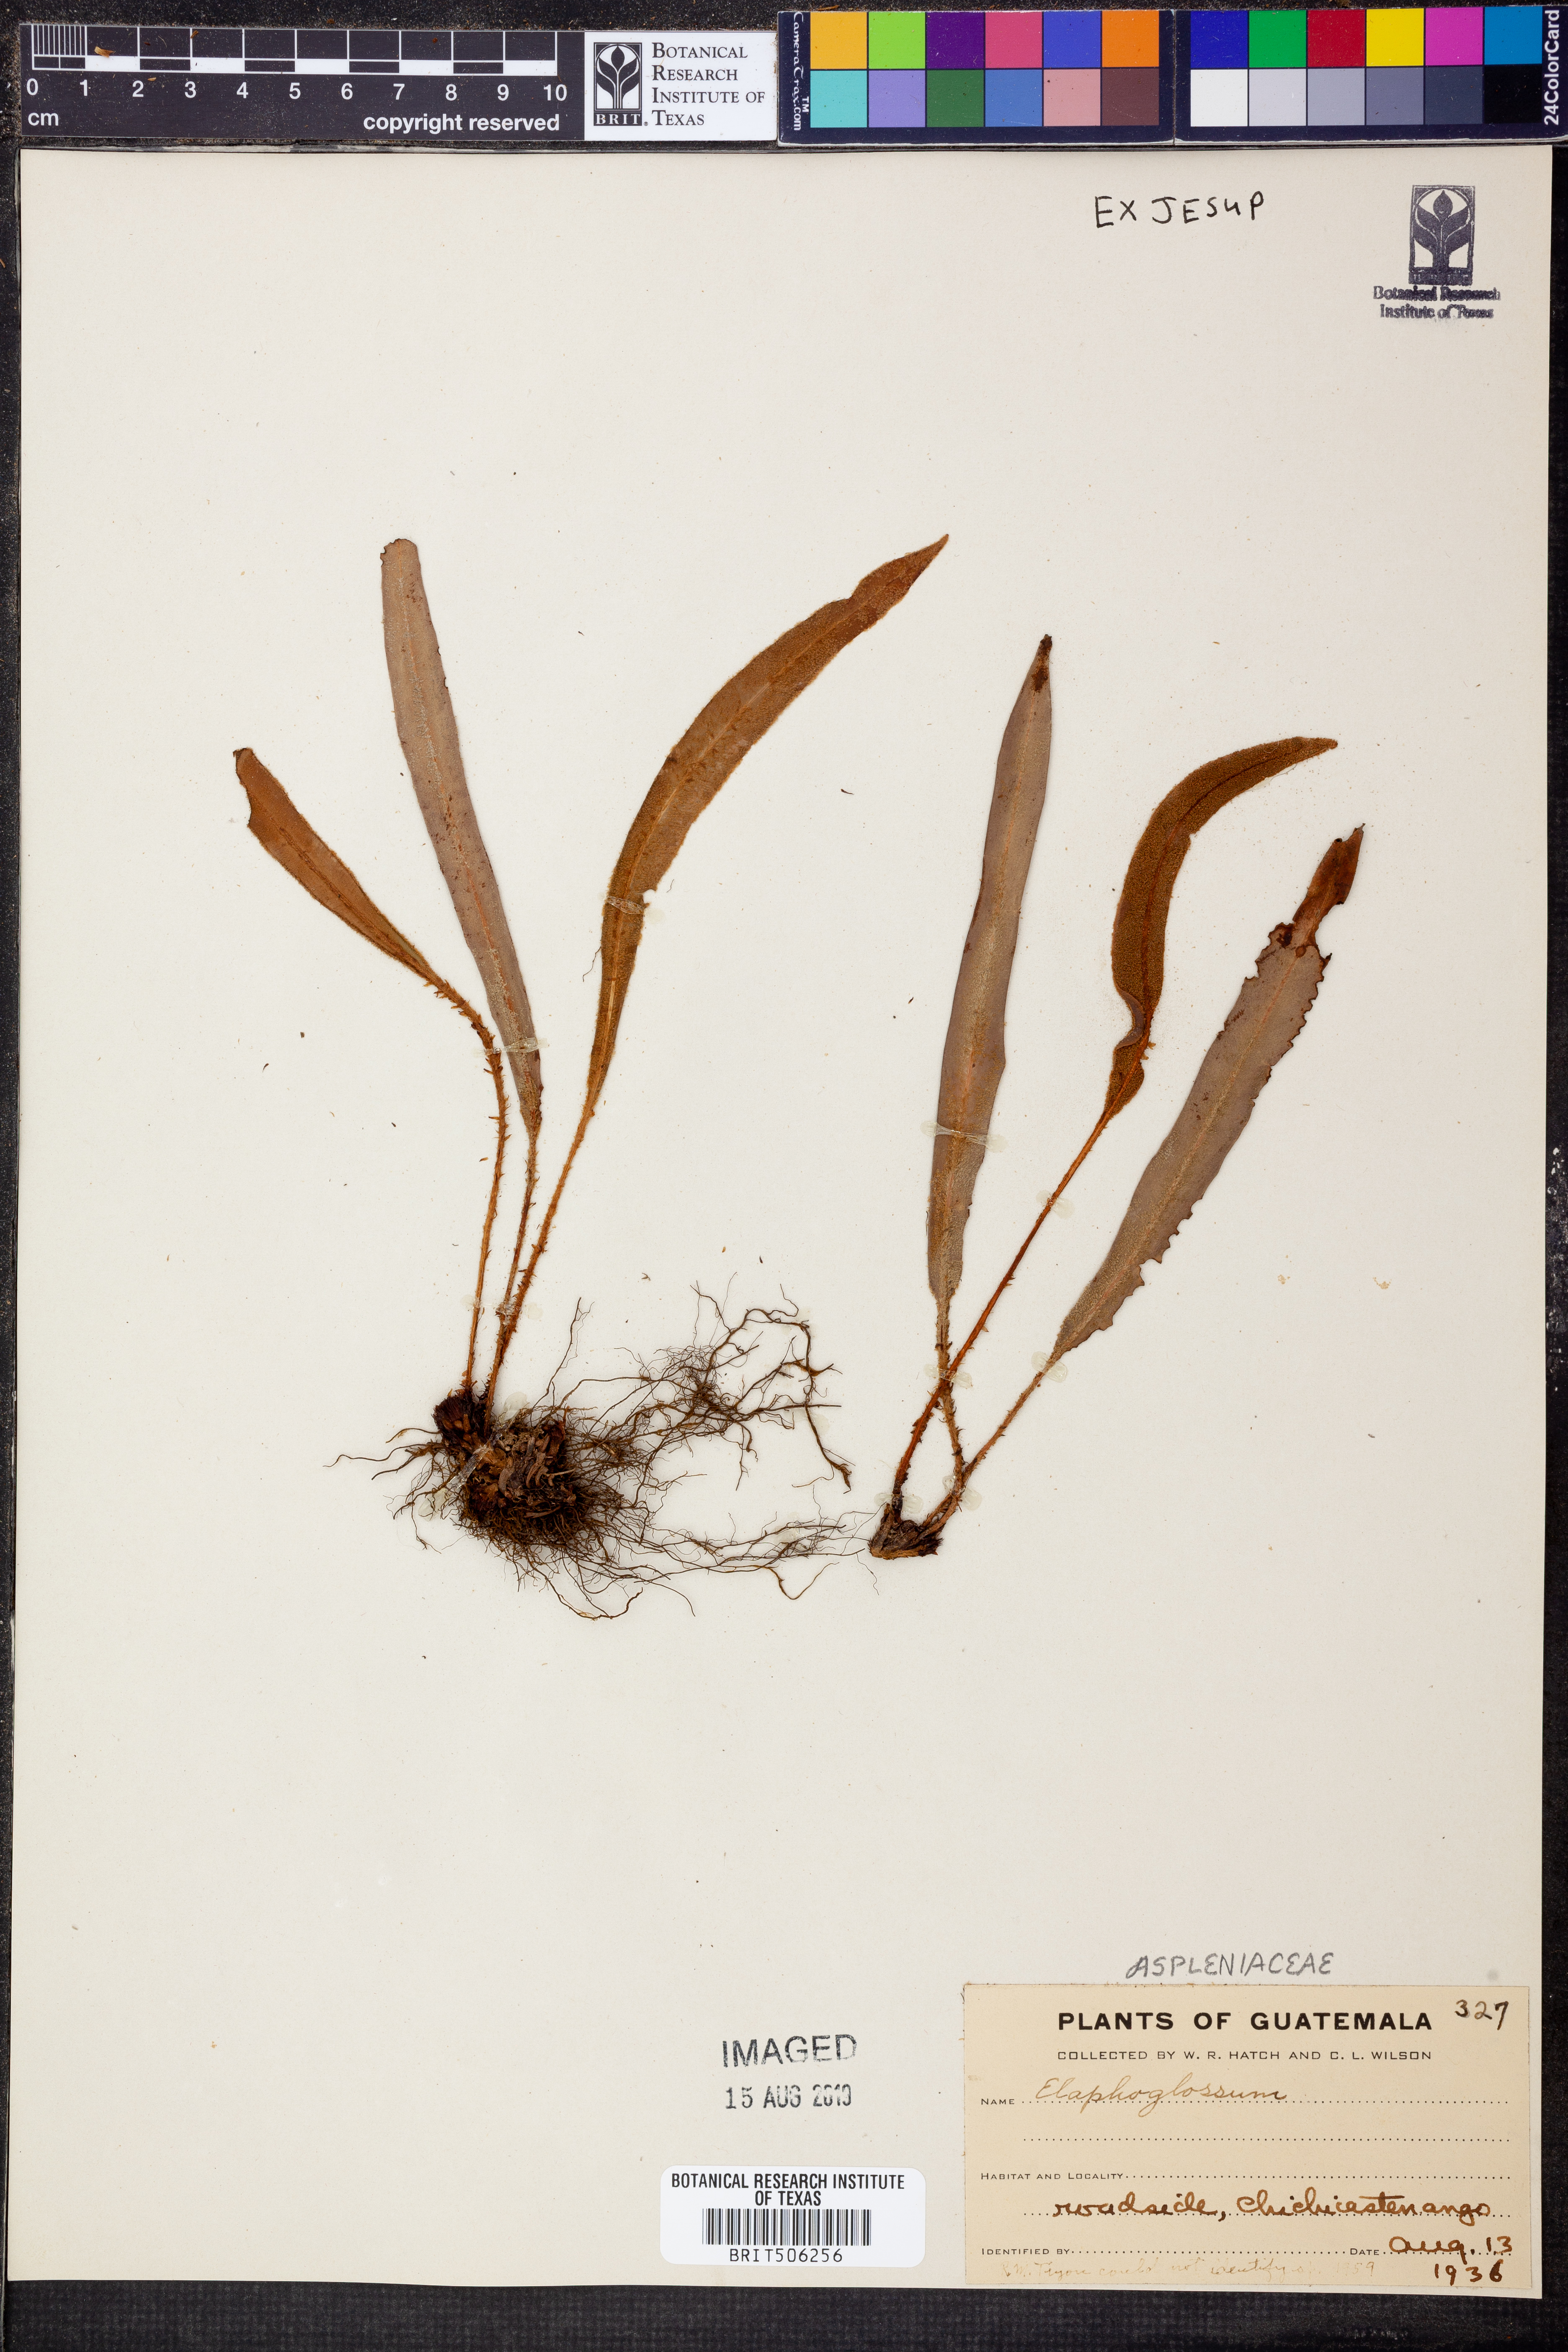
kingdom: Plantae
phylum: Tracheophyta
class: Polypodiopsida
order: Polypodiales
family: Dryopteridaceae
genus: Elaphoglossum
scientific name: Elaphoglossum
